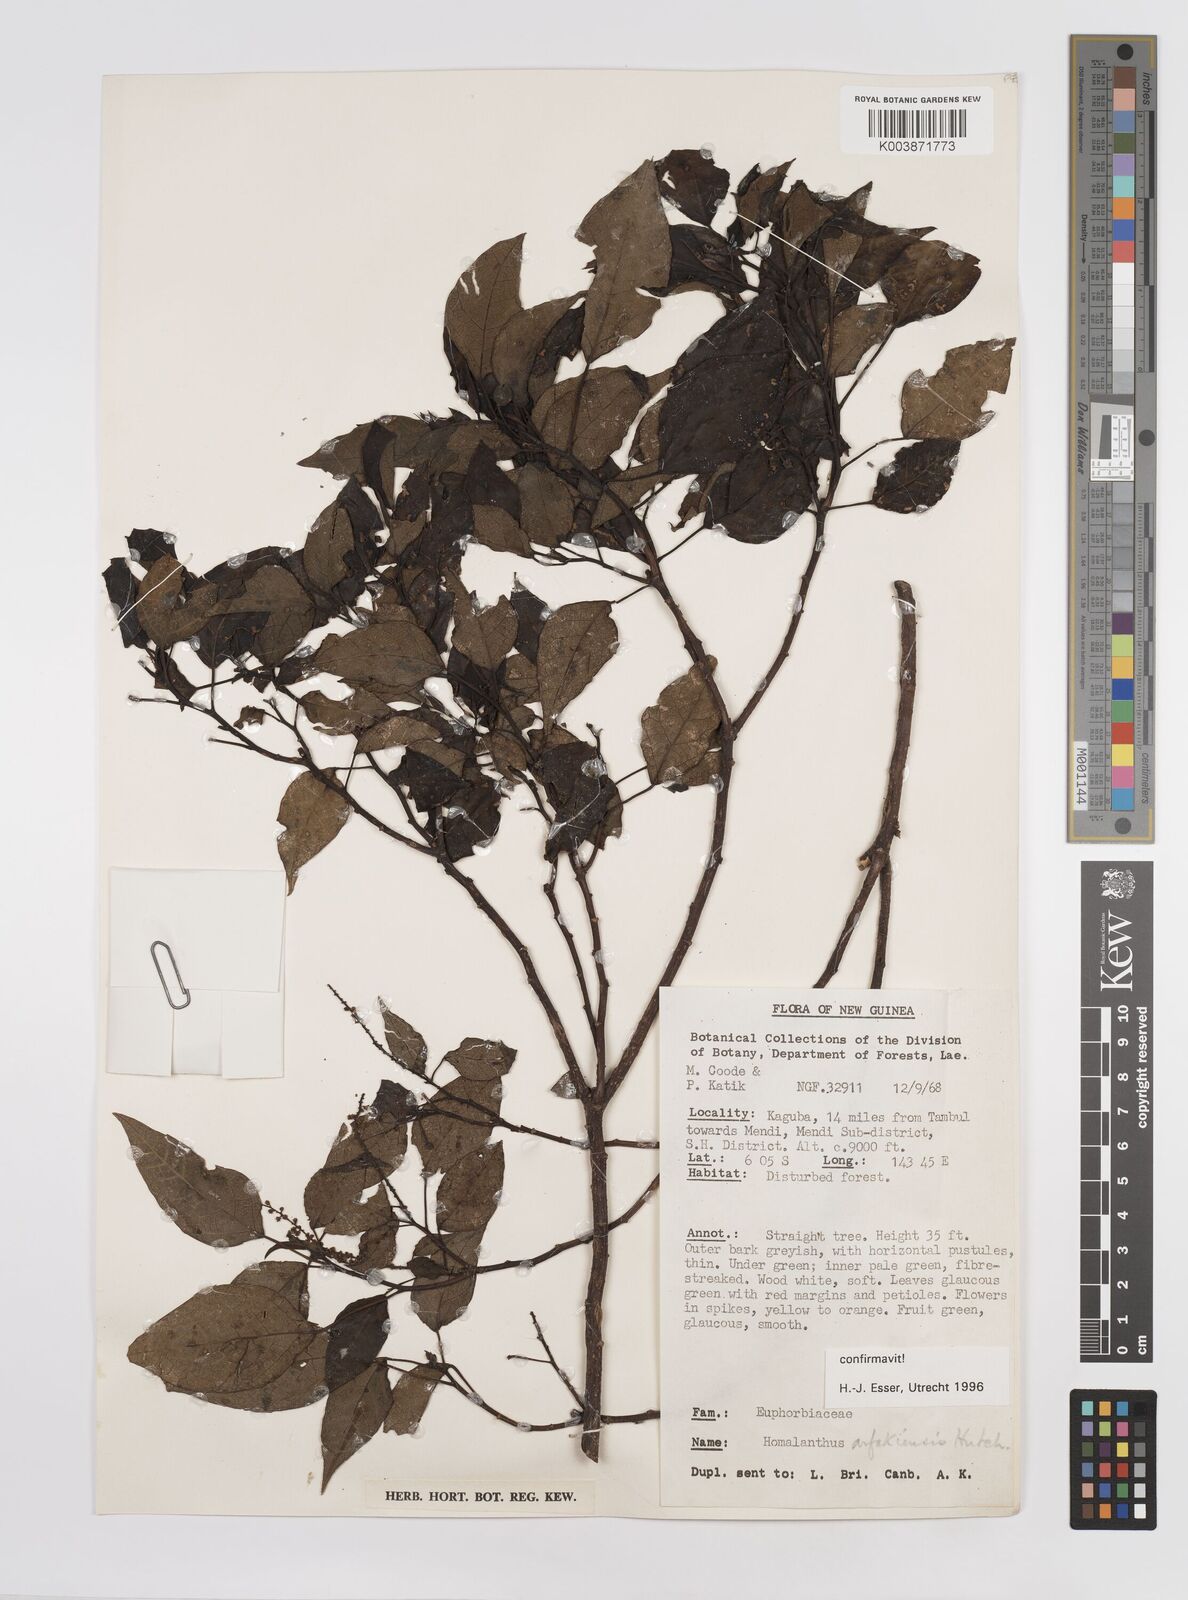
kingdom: Plantae
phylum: Tracheophyta
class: Magnoliopsida
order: Malpighiales
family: Euphorbiaceae
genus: Homalanthus
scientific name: Homalanthus arfakiensis
